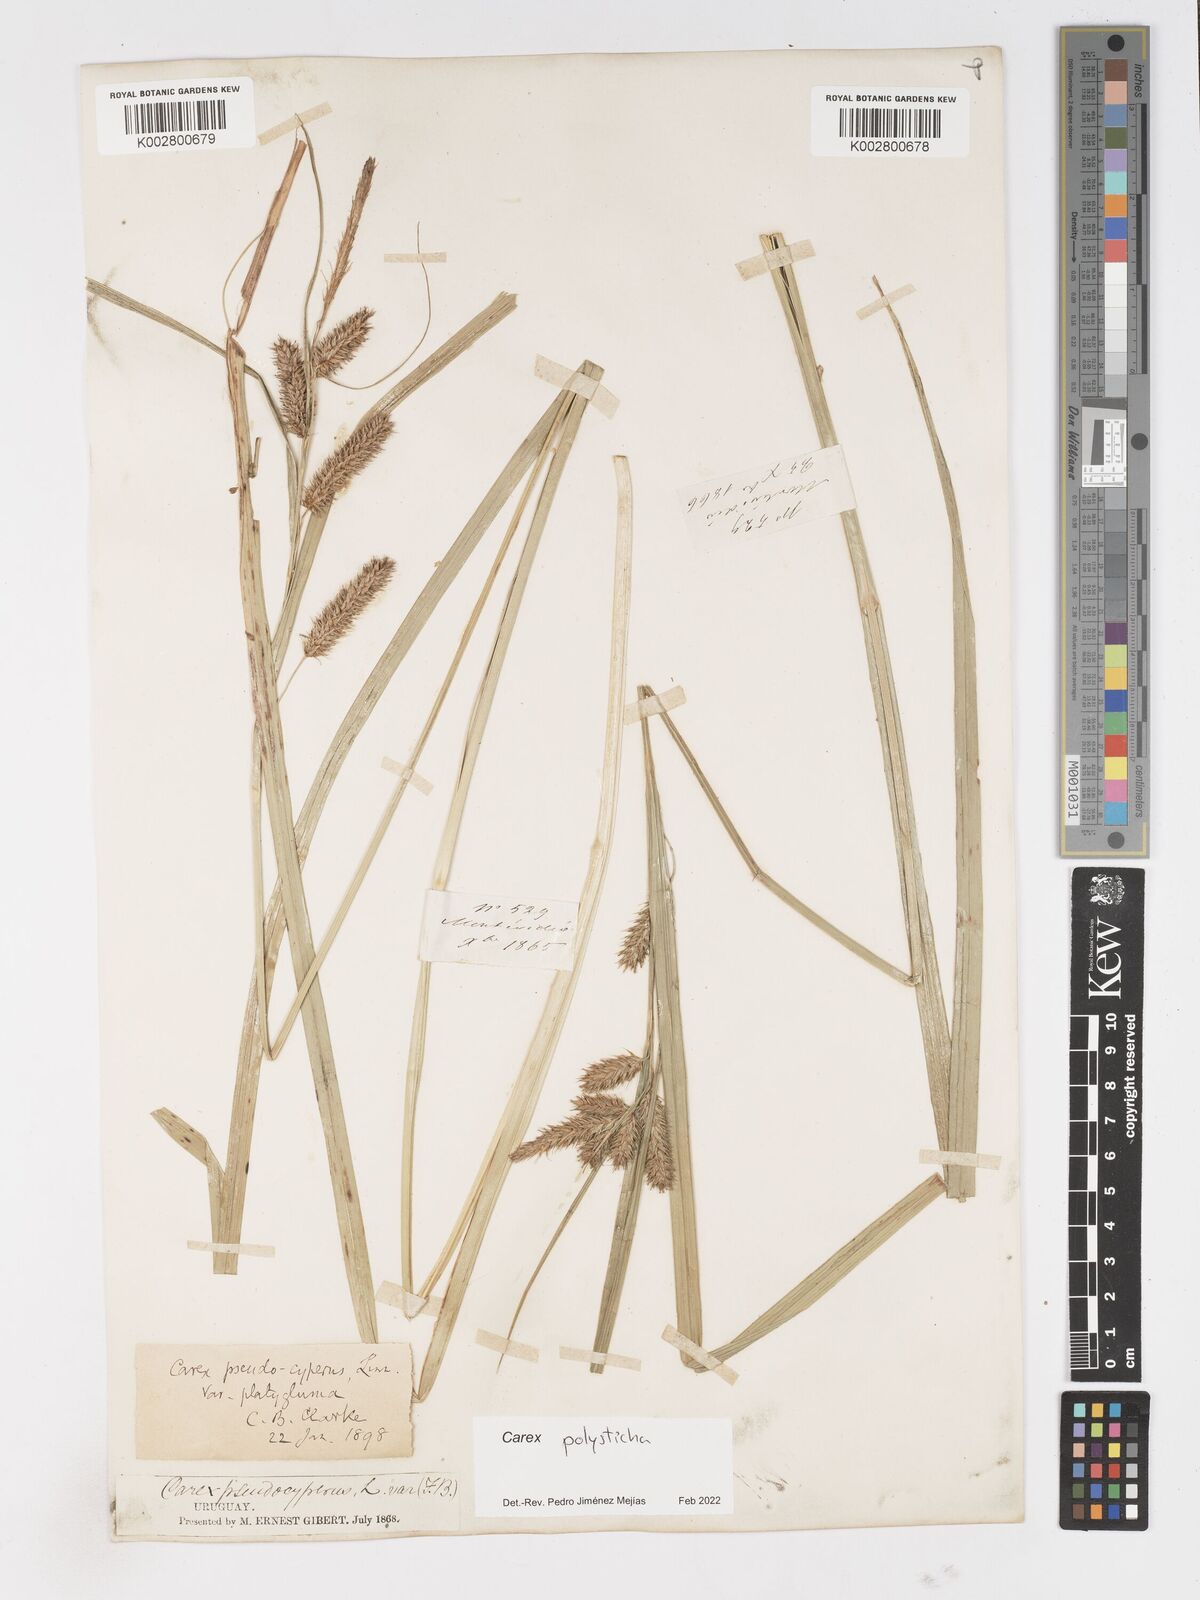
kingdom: Plantae
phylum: Tracheophyta
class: Liliopsida
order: Poales
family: Cyperaceae
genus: Carex
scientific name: Carex excelsa
